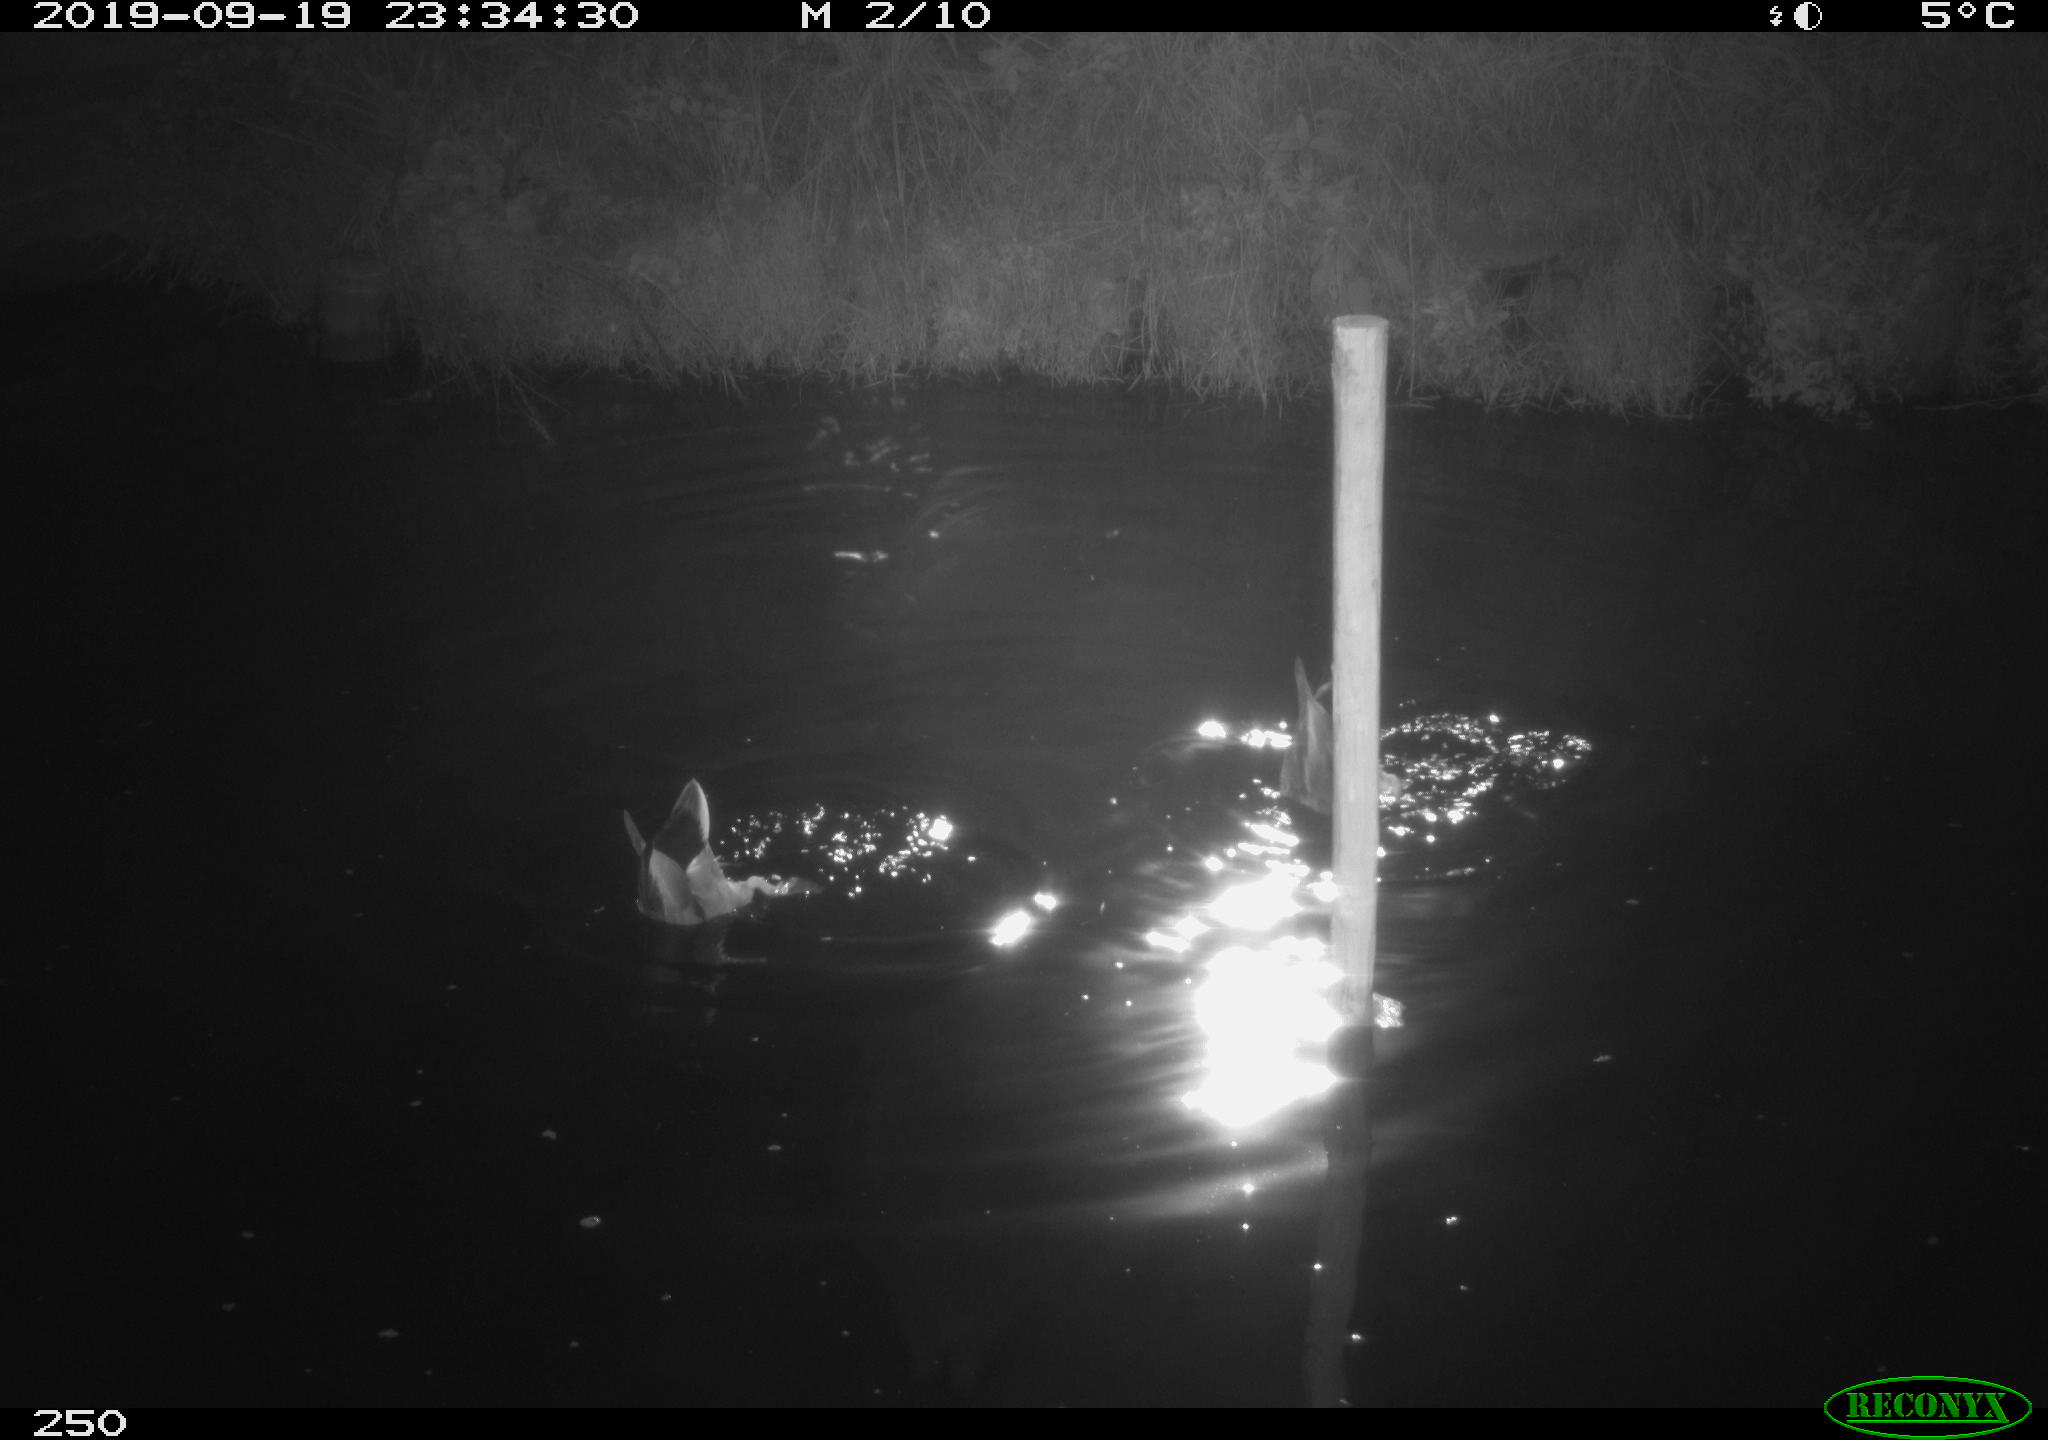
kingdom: Animalia
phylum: Chordata
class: Aves
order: Anseriformes
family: Anatidae
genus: Anas
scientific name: Anas platyrhynchos
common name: Mallard
